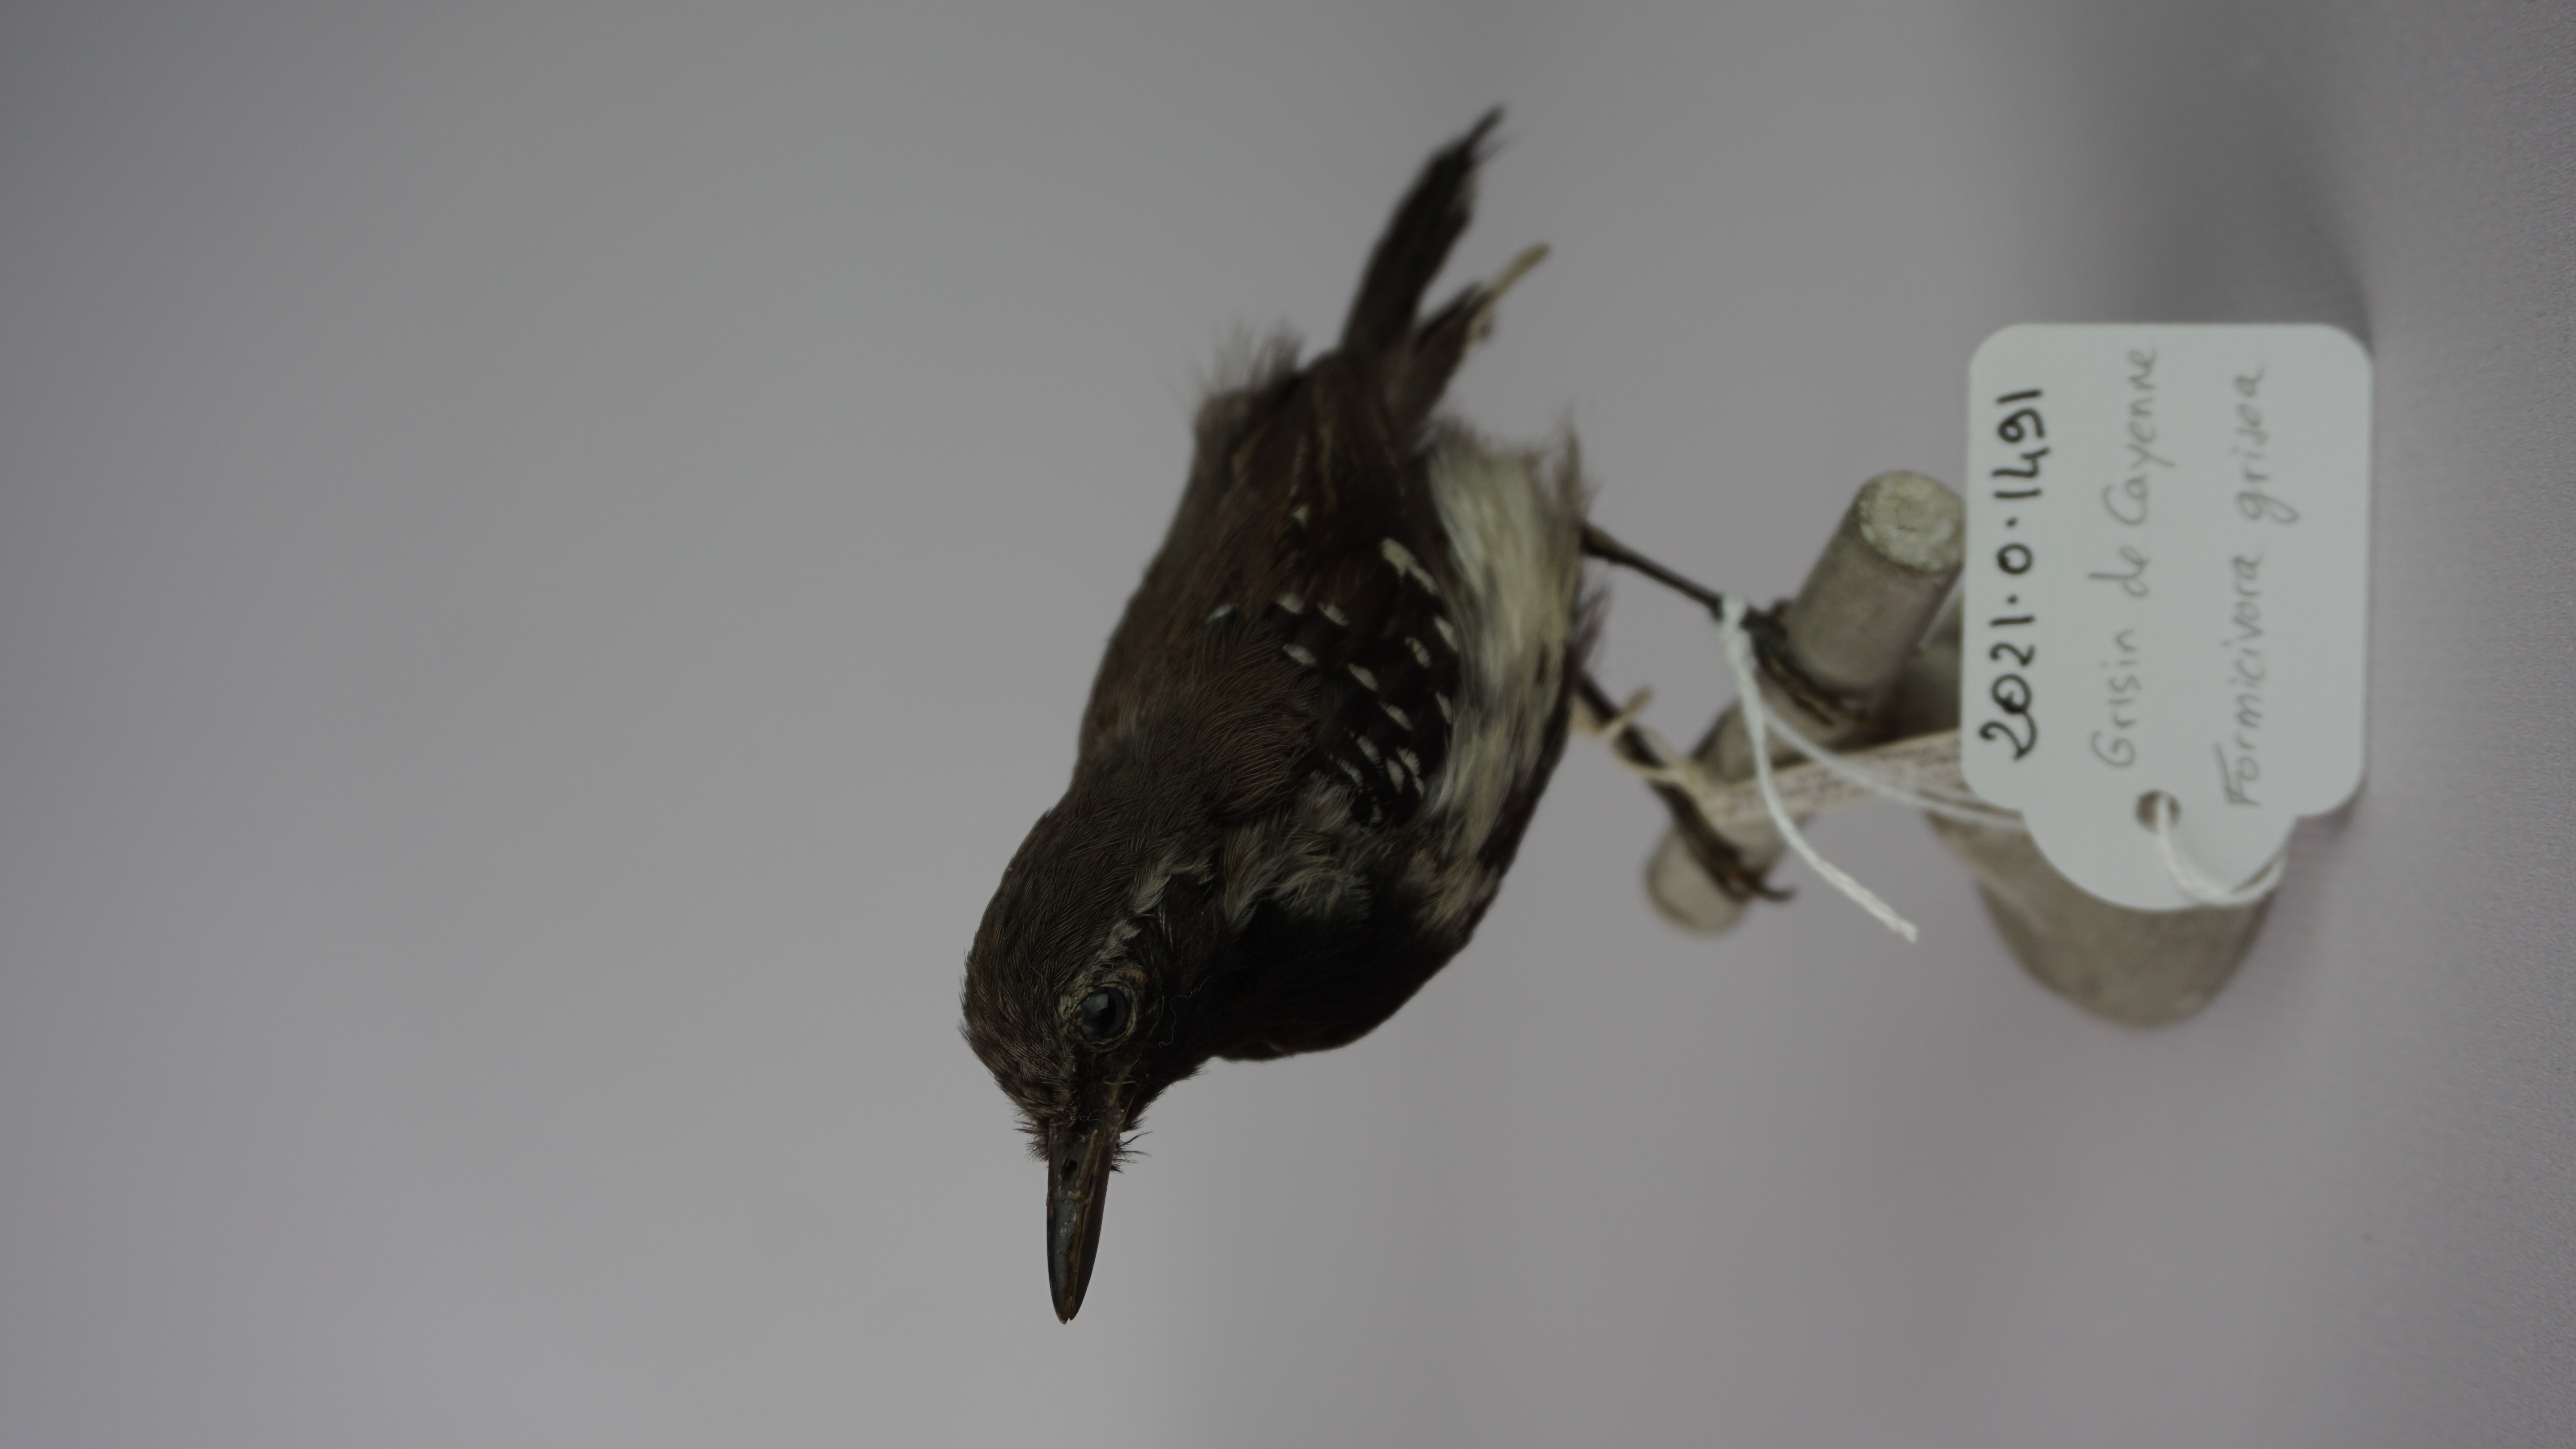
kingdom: Animalia
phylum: Chordata
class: Aves
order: Passeriformes
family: Thamnophilidae
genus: Formicivora
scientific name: Formicivora grisea
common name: Southern white-fringed antwren
